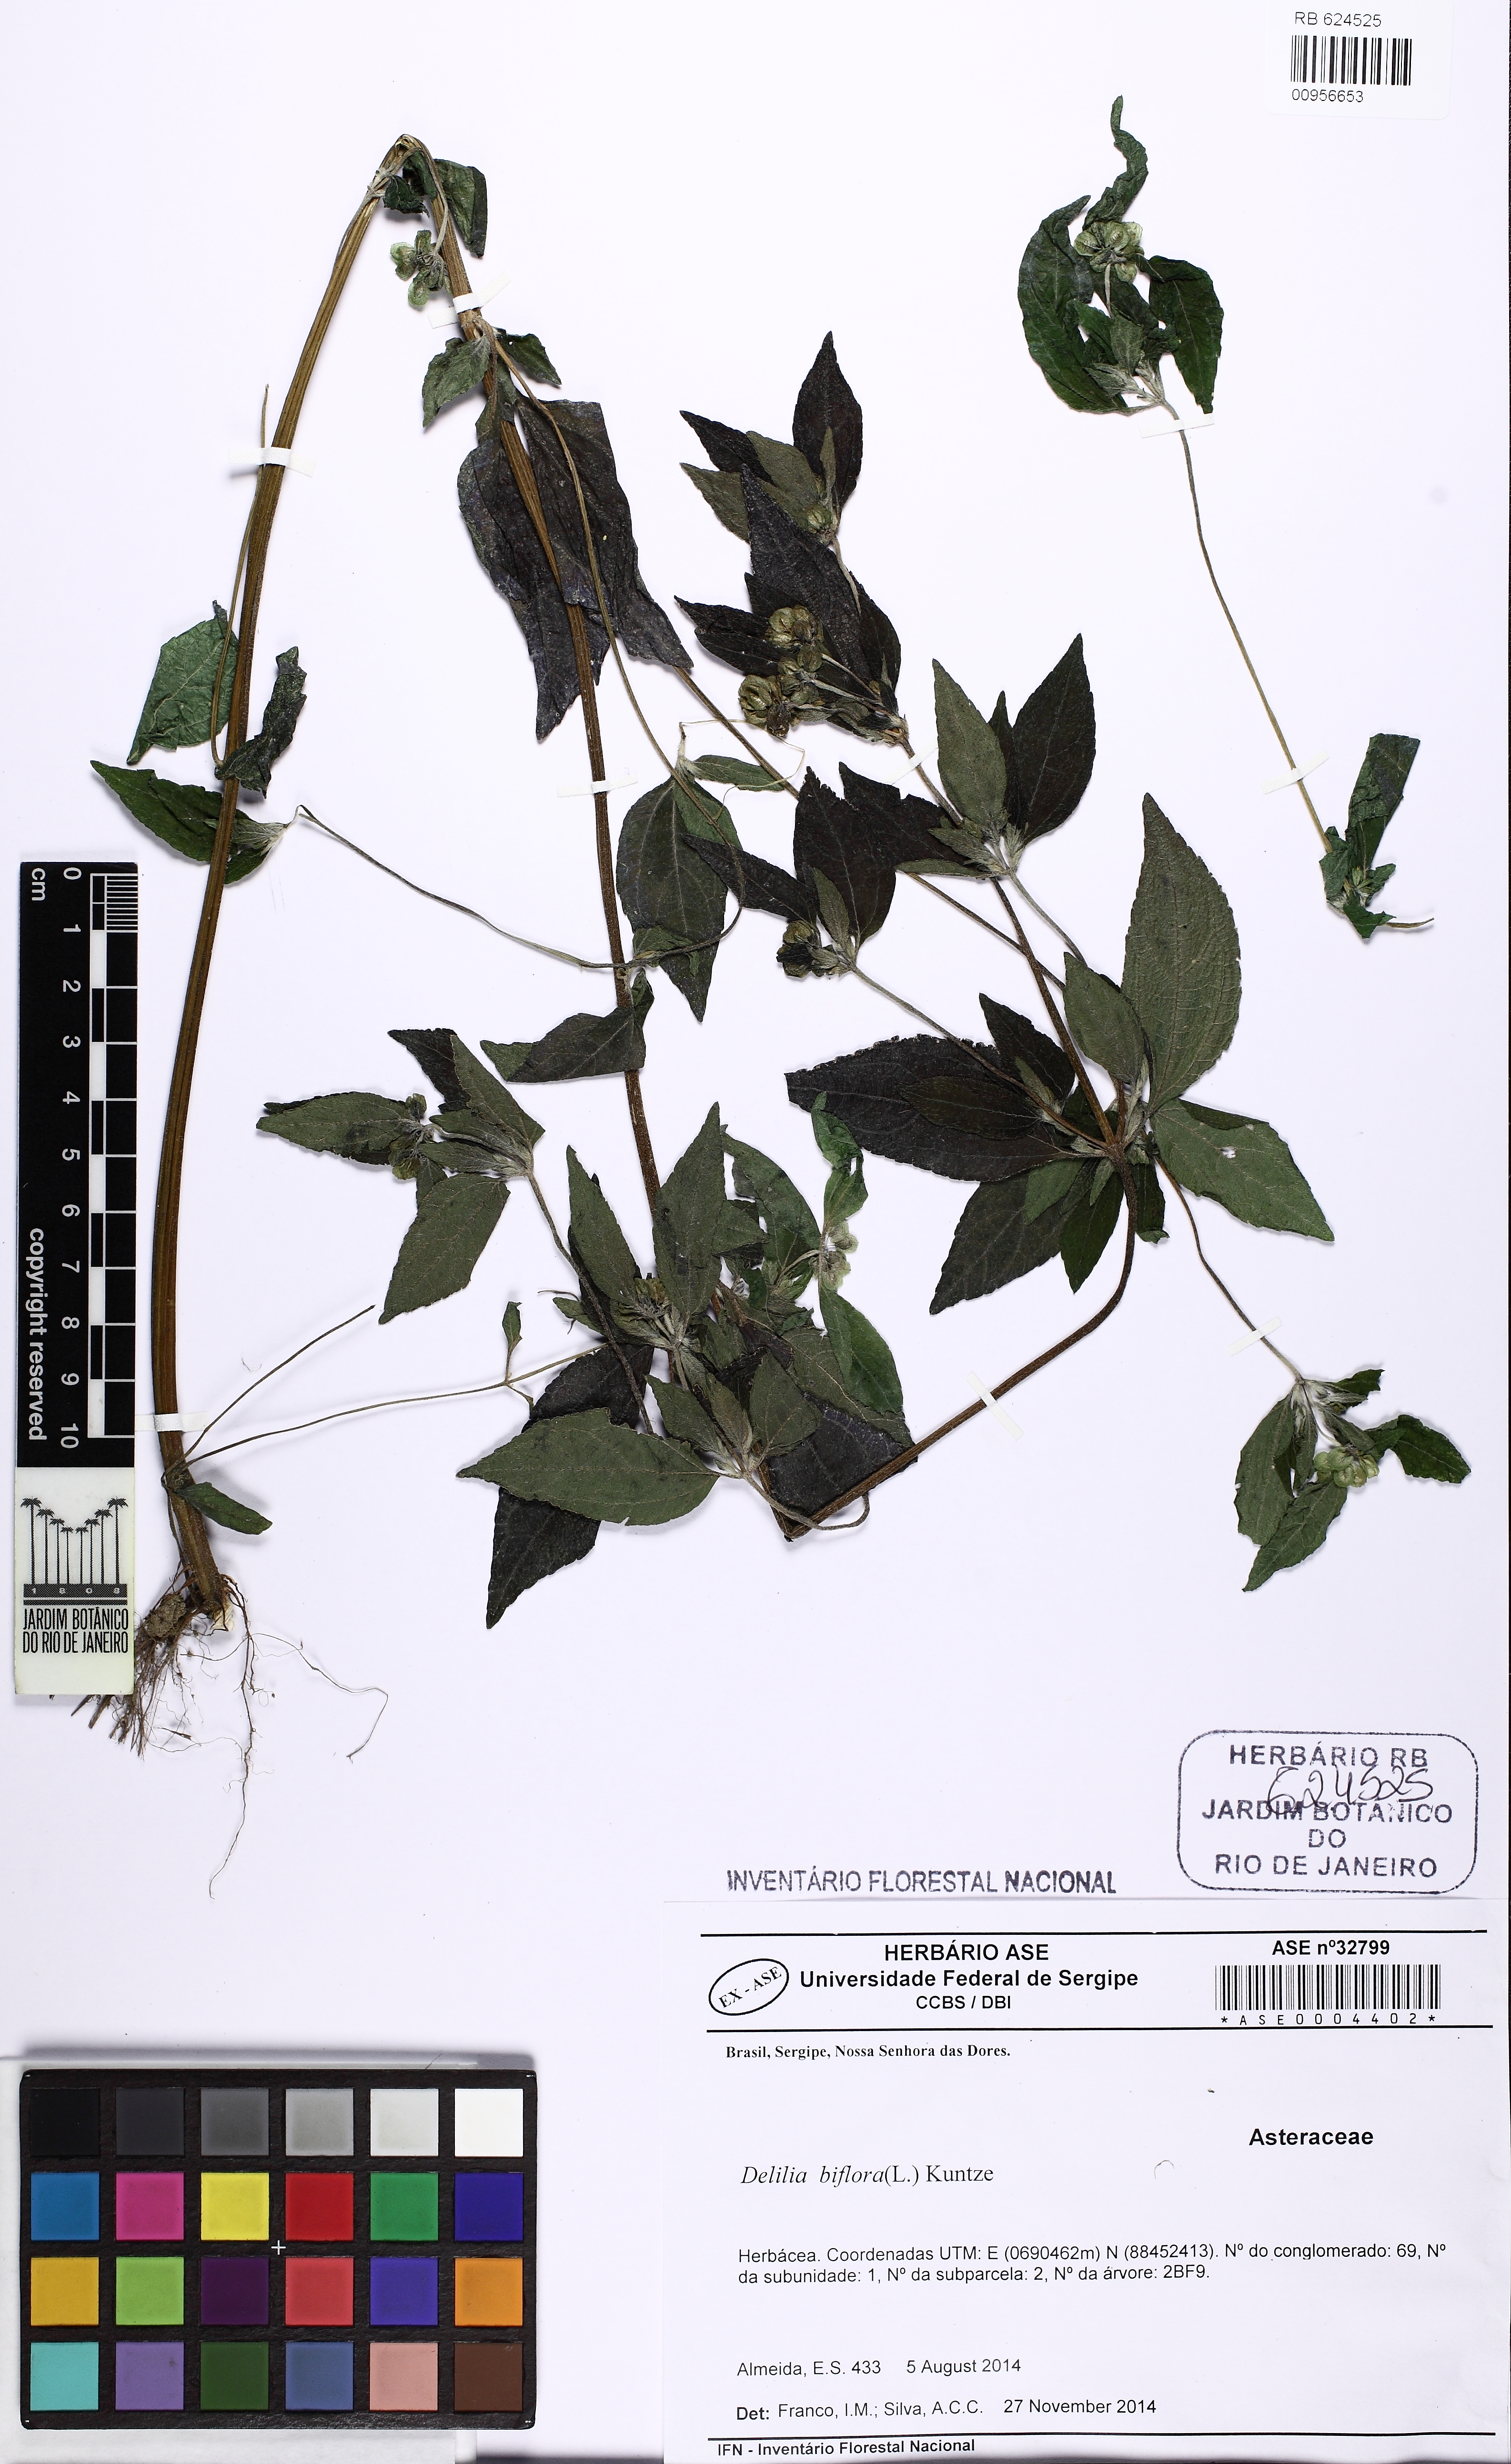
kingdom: Plantae
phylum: Tracheophyta
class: Magnoliopsida
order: Asterales
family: Asteraceae
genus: Delilia
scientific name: Delilia biflora
